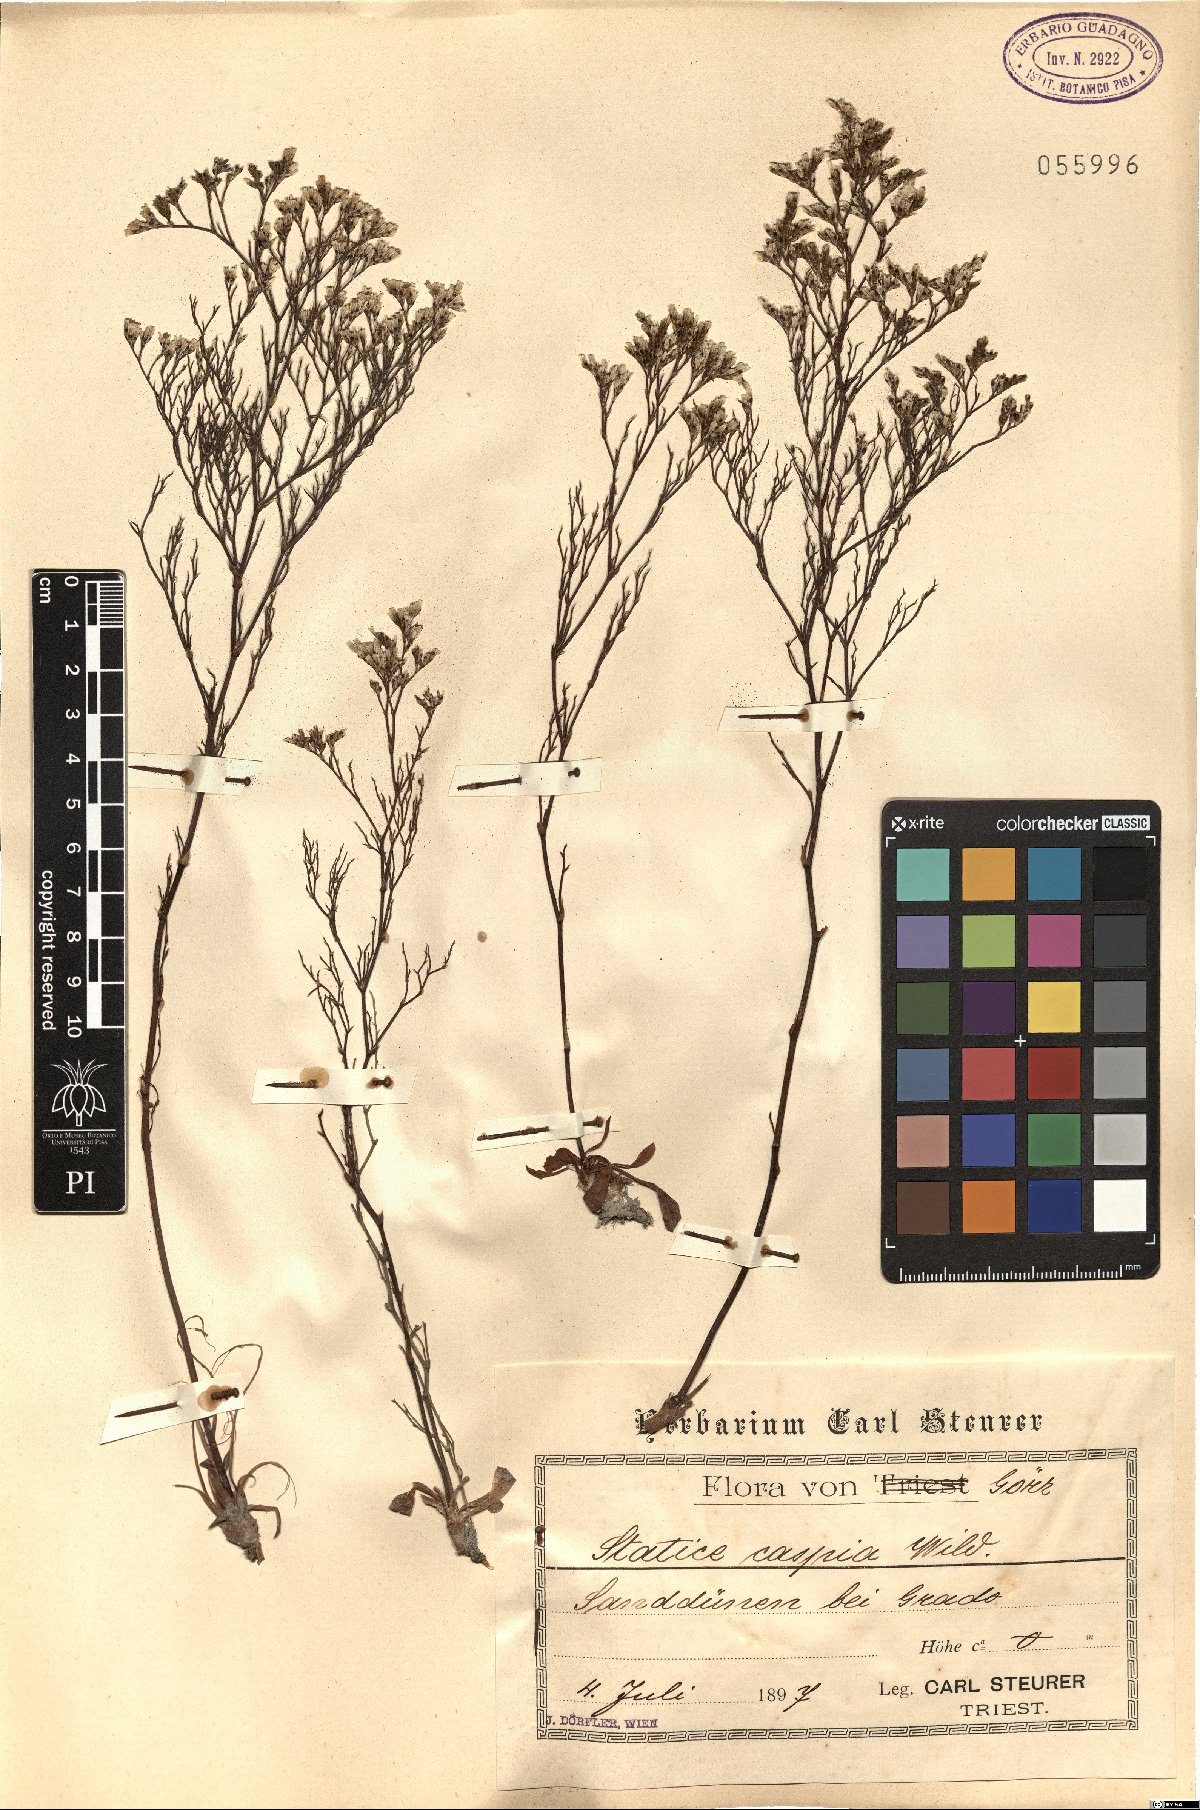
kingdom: Plantae
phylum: Tracheophyta
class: Magnoliopsida
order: Caryophyllales
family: Plumbaginaceae
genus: Limonium
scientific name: Limonium bellidifolium
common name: Matted sea-lavender
